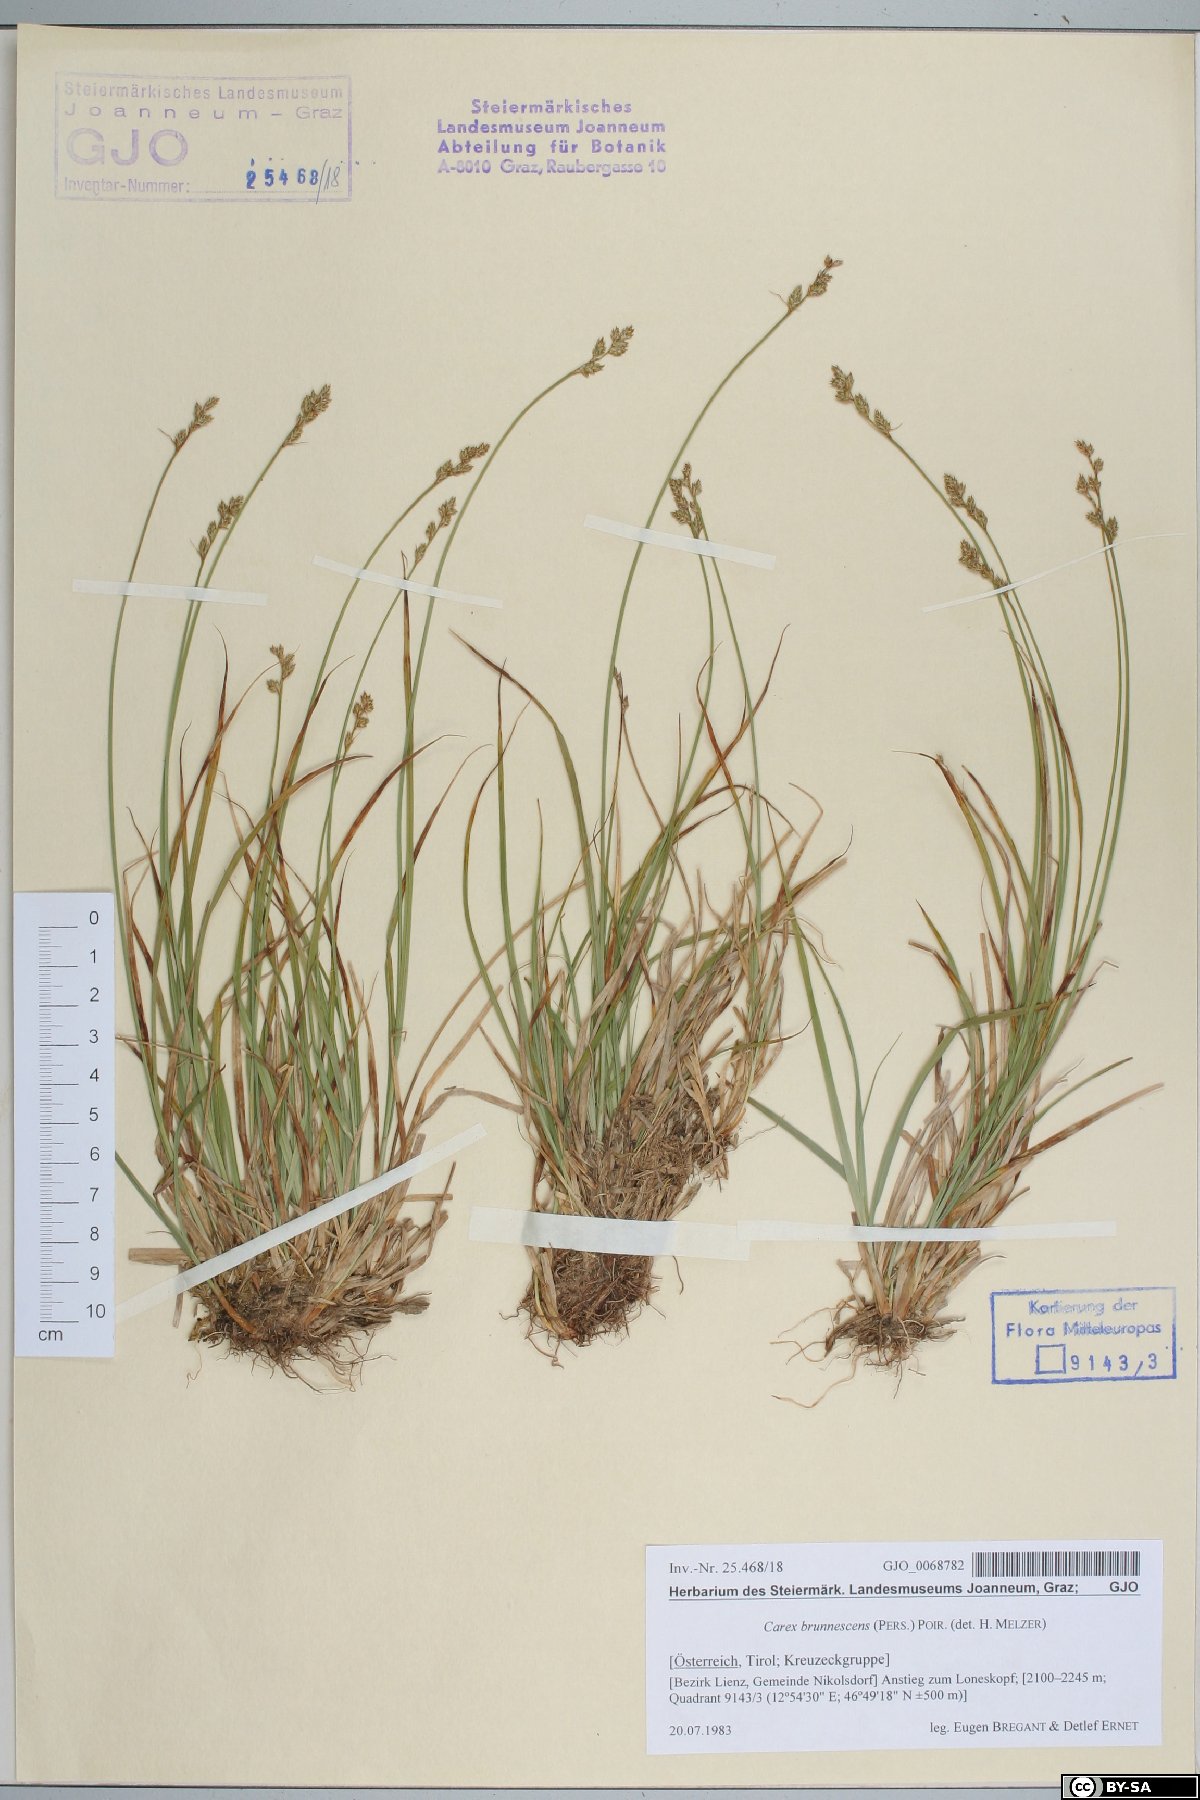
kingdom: Plantae
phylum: Tracheophyta
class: Liliopsida
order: Poales
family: Cyperaceae
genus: Carex
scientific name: Carex brunnescens
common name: Brown sedge
